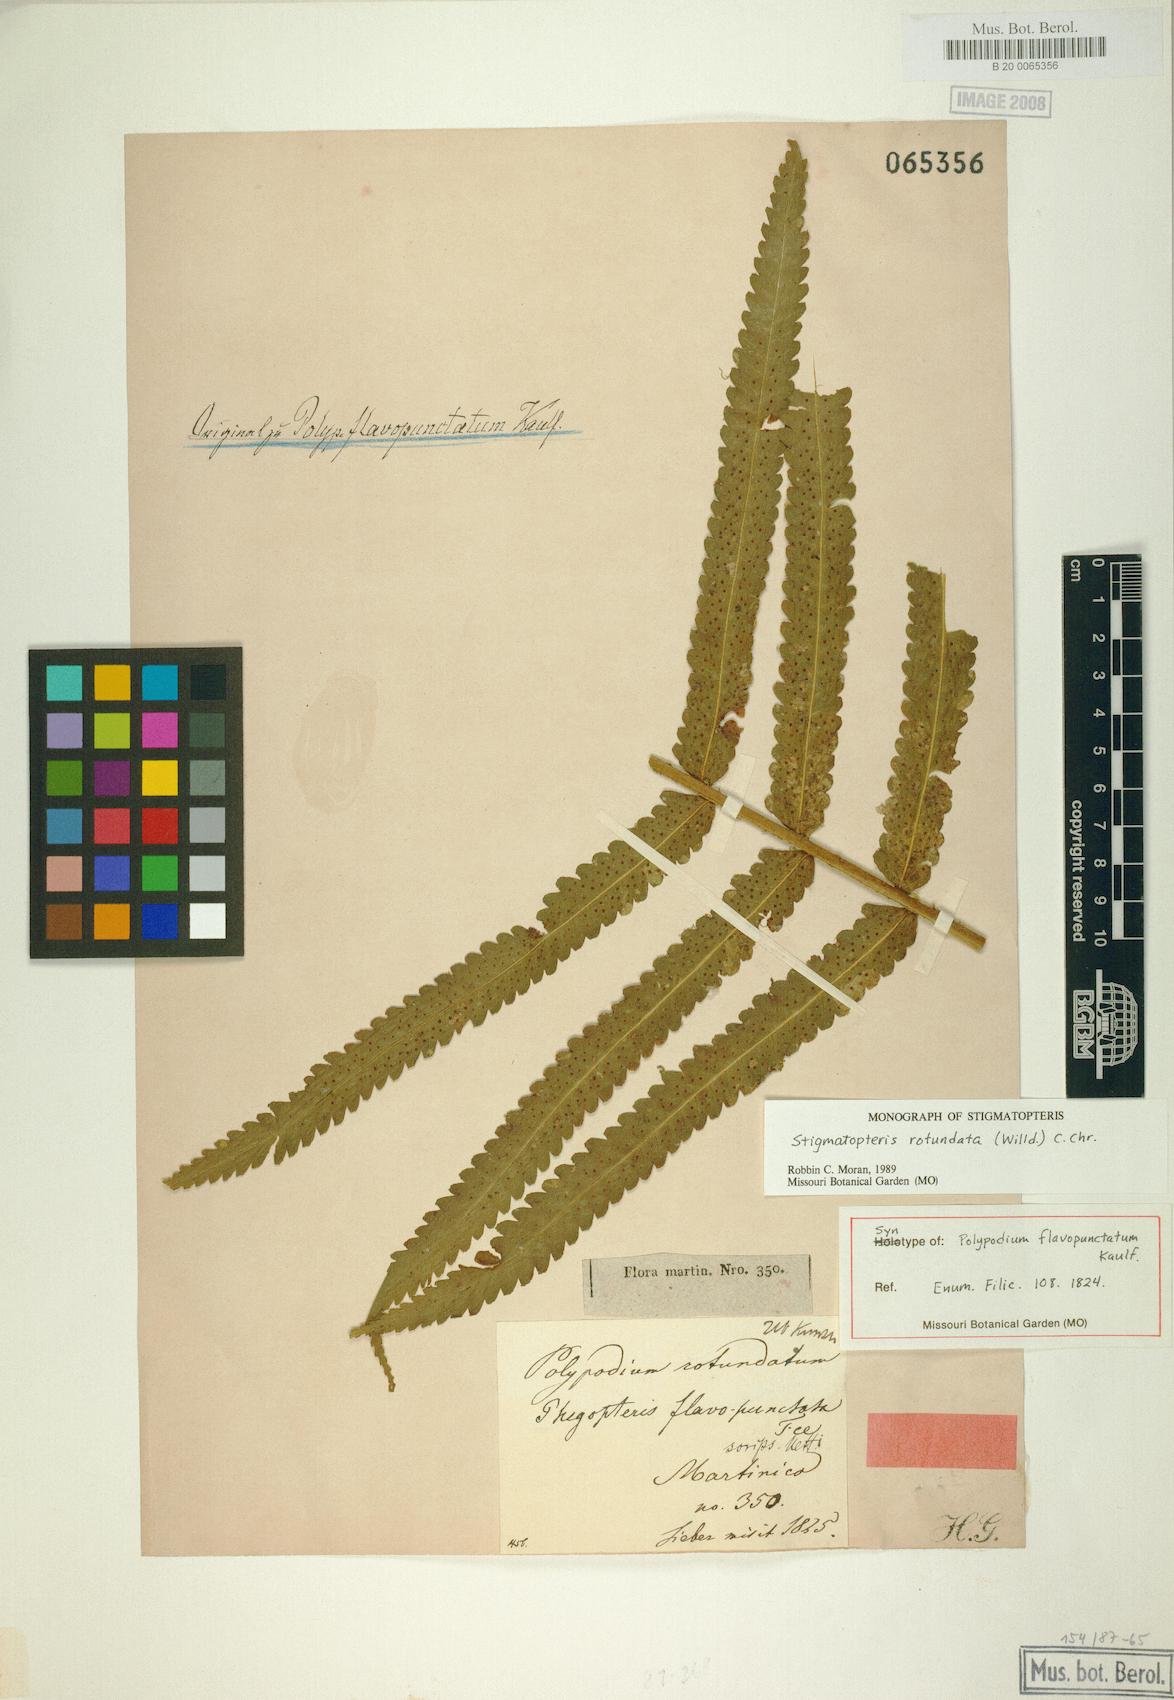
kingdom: Plantae
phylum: Tracheophyta
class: Polypodiopsida
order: Polypodiales
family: Dryopteridaceae
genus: Stigmatopteris
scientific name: Stigmatopteris rotundata
